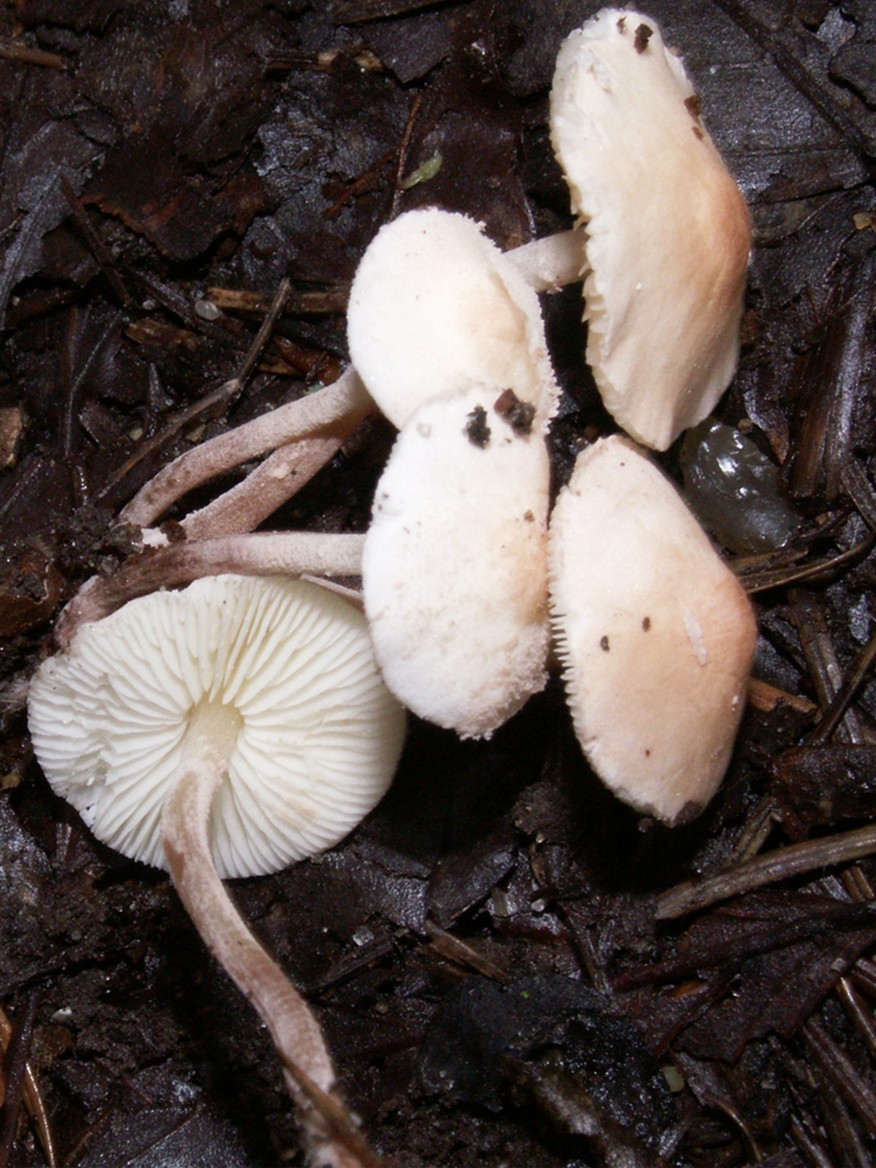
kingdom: Fungi
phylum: Basidiomycota
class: Agaricomycetes
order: Agaricales
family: Agaricaceae
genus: Cystolepiota
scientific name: Cystolepiota seminuda
